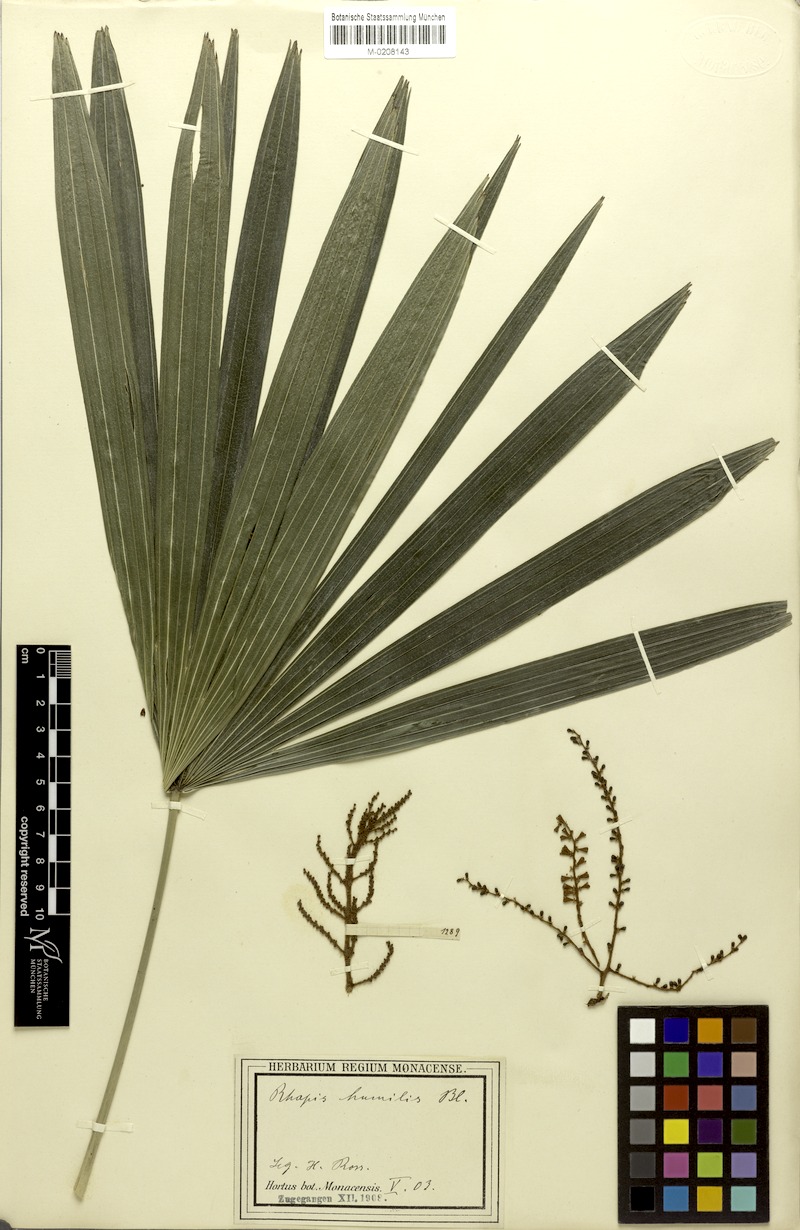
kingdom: Plantae
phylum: Tracheophyta
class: Liliopsida
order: Arecales
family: Arecaceae
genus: Rhapis
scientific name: Rhapis humilis
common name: Reed rhapis
